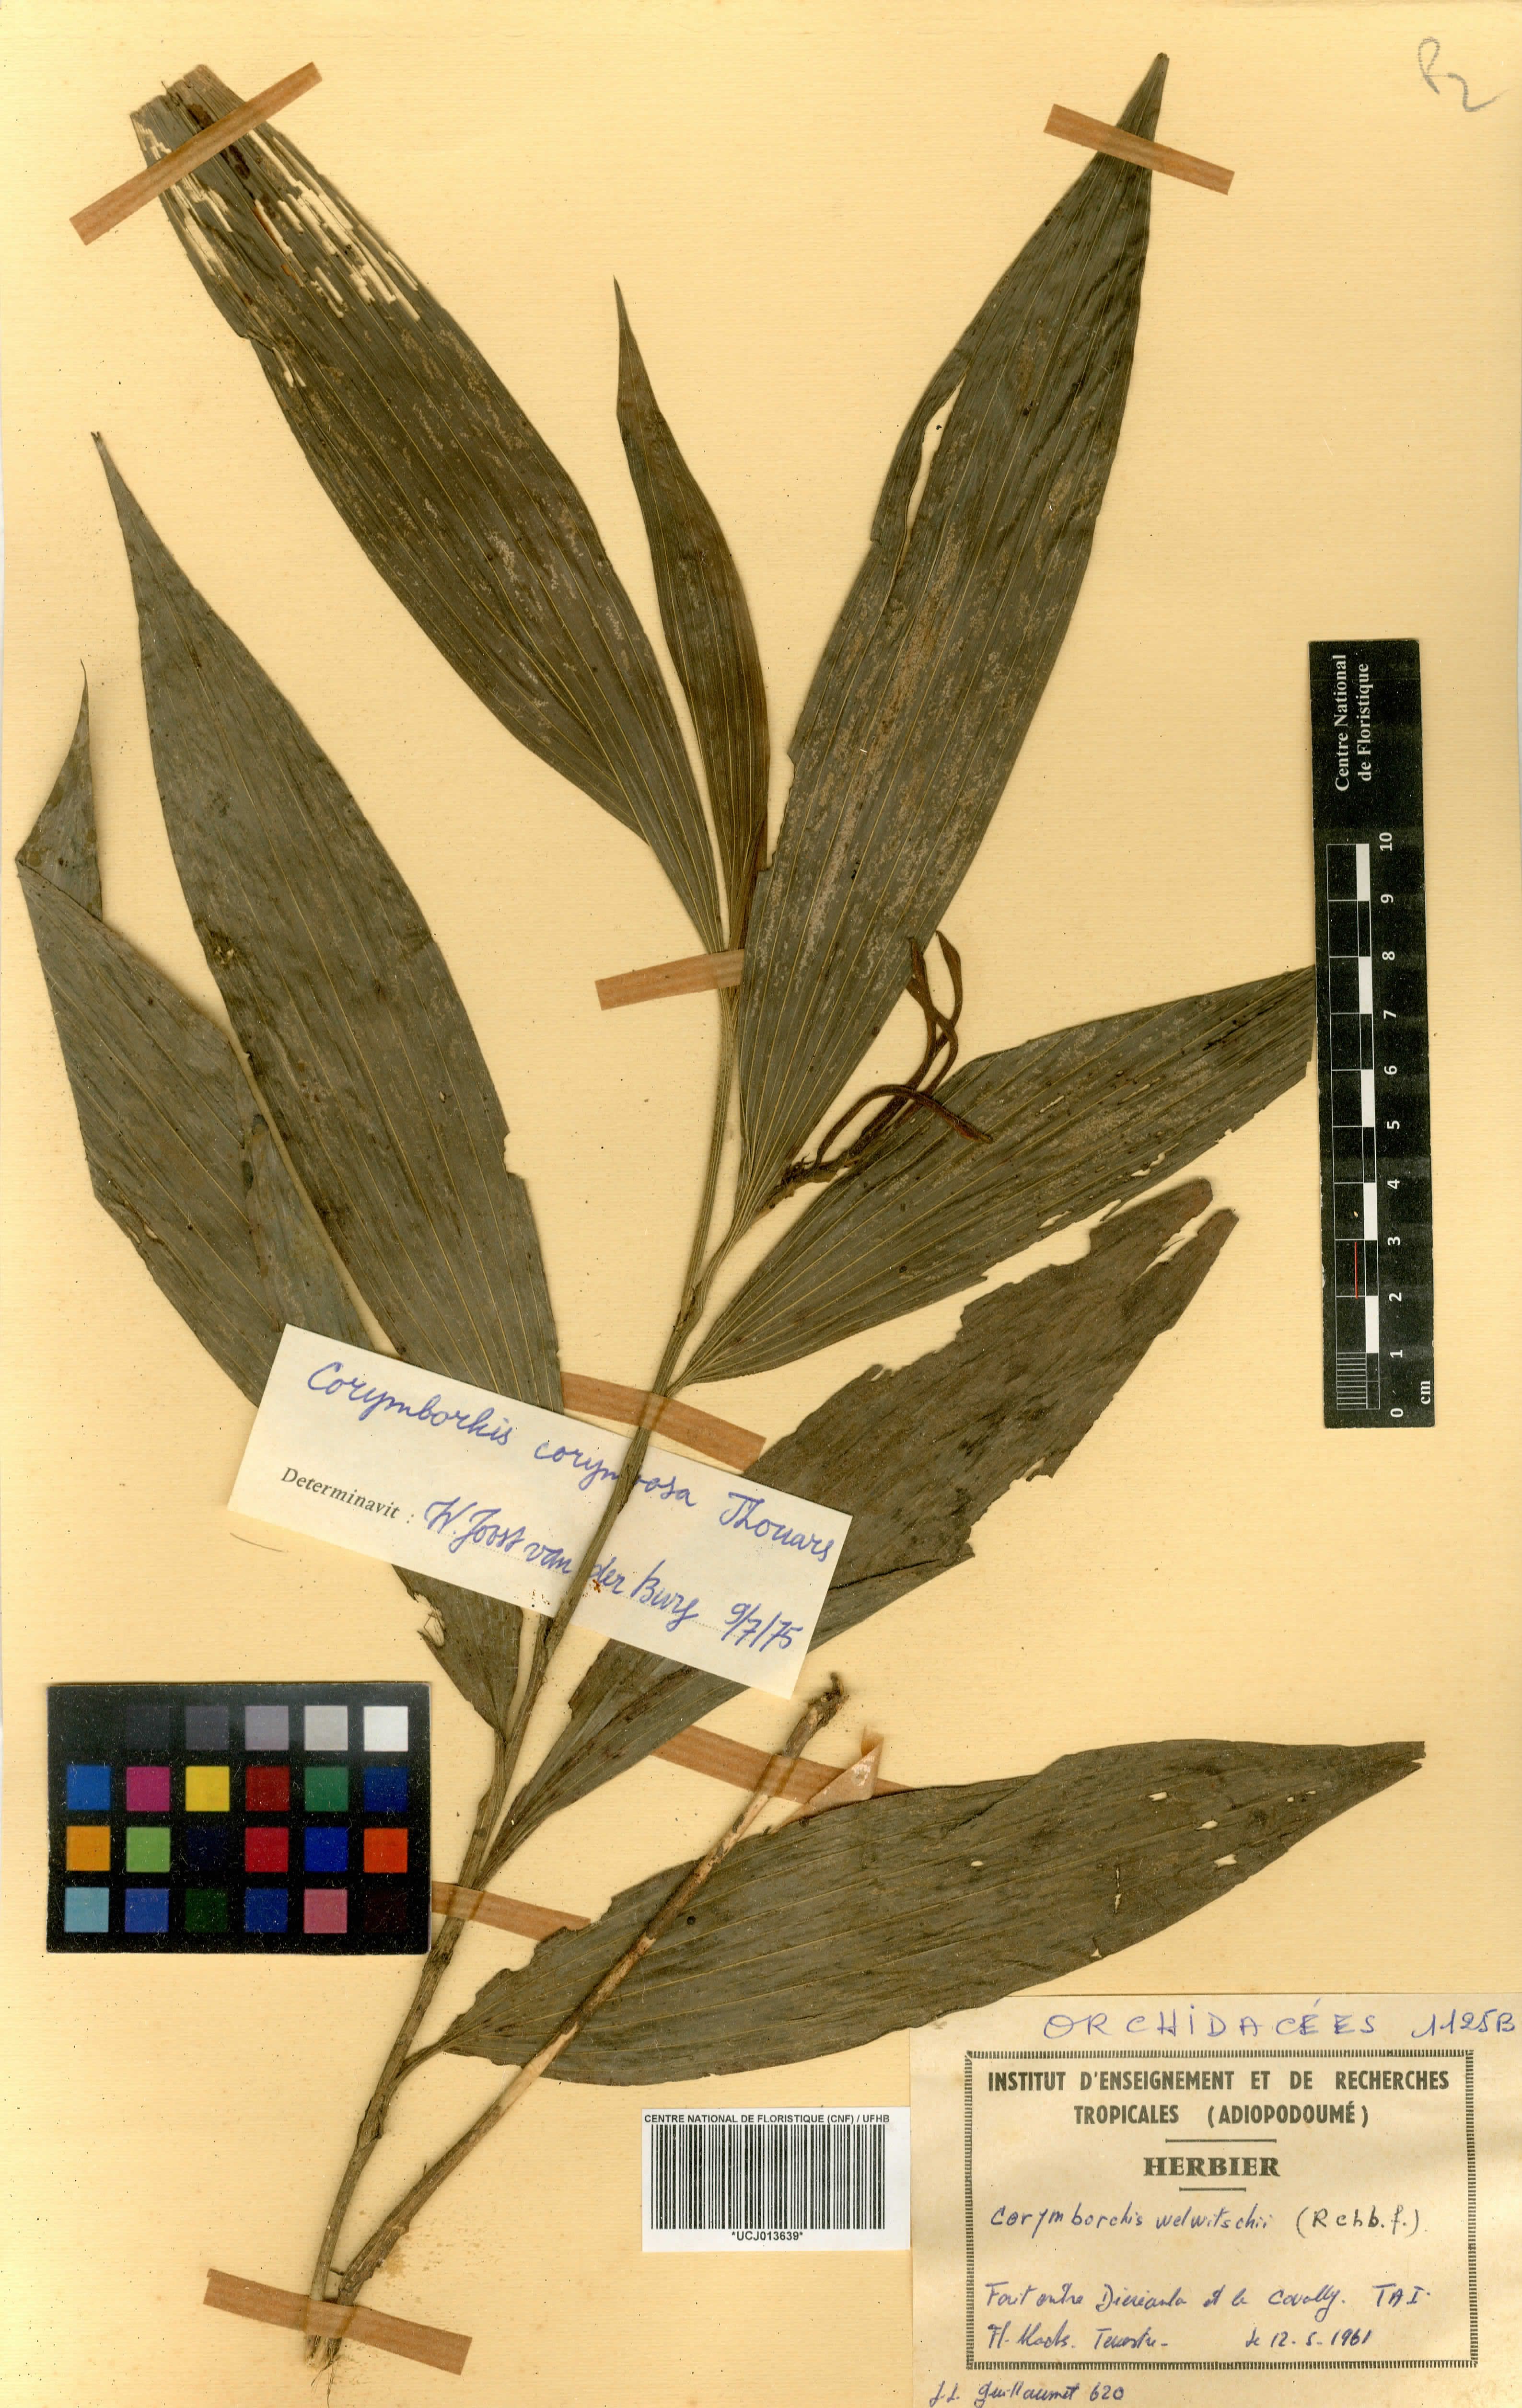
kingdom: Plantae
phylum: Tracheophyta
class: Liliopsida
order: Asparagales
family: Orchidaceae
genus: Corymborkis
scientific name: Corymborkis corymbis
